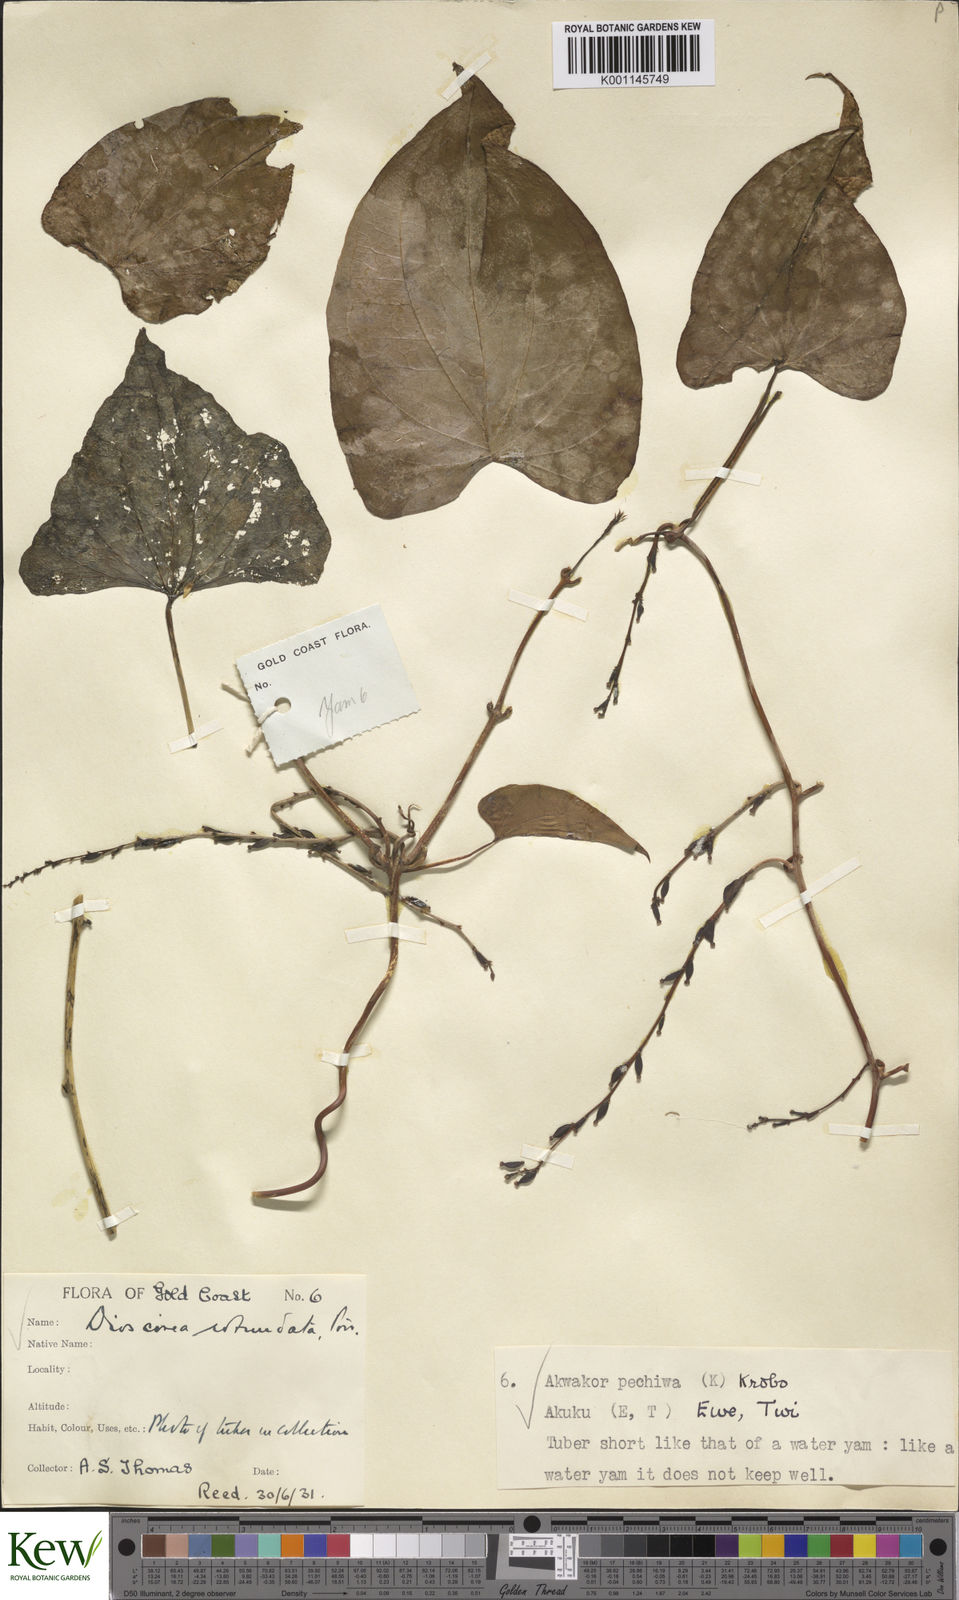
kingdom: Plantae
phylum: Tracheophyta
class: Liliopsida
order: Dioscoreales
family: Dioscoreaceae
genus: Dioscorea
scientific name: Dioscorea cayenensis
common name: Attoto yam
